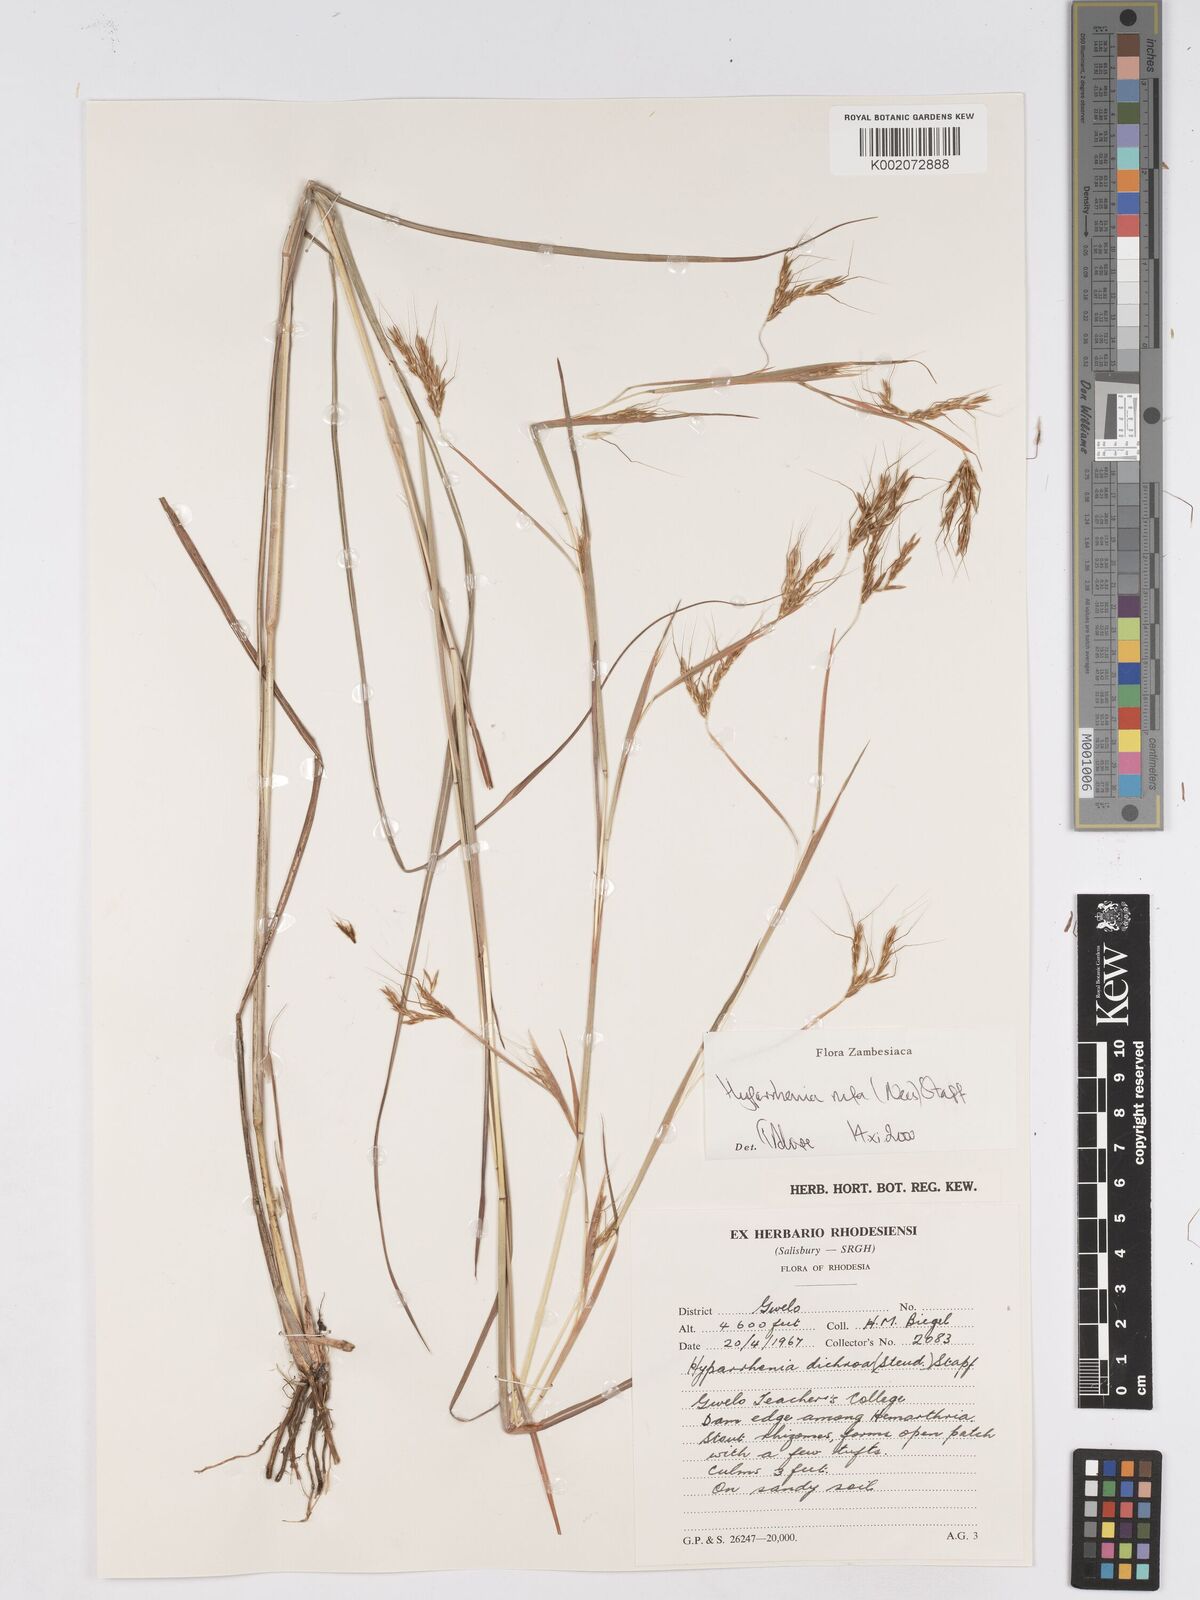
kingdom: Plantae
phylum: Tracheophyta
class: Liliopsida
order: Poales
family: Poaceae
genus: Hyparrhenia
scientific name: Hyparrhenia rufa
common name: Jaraguagrass
